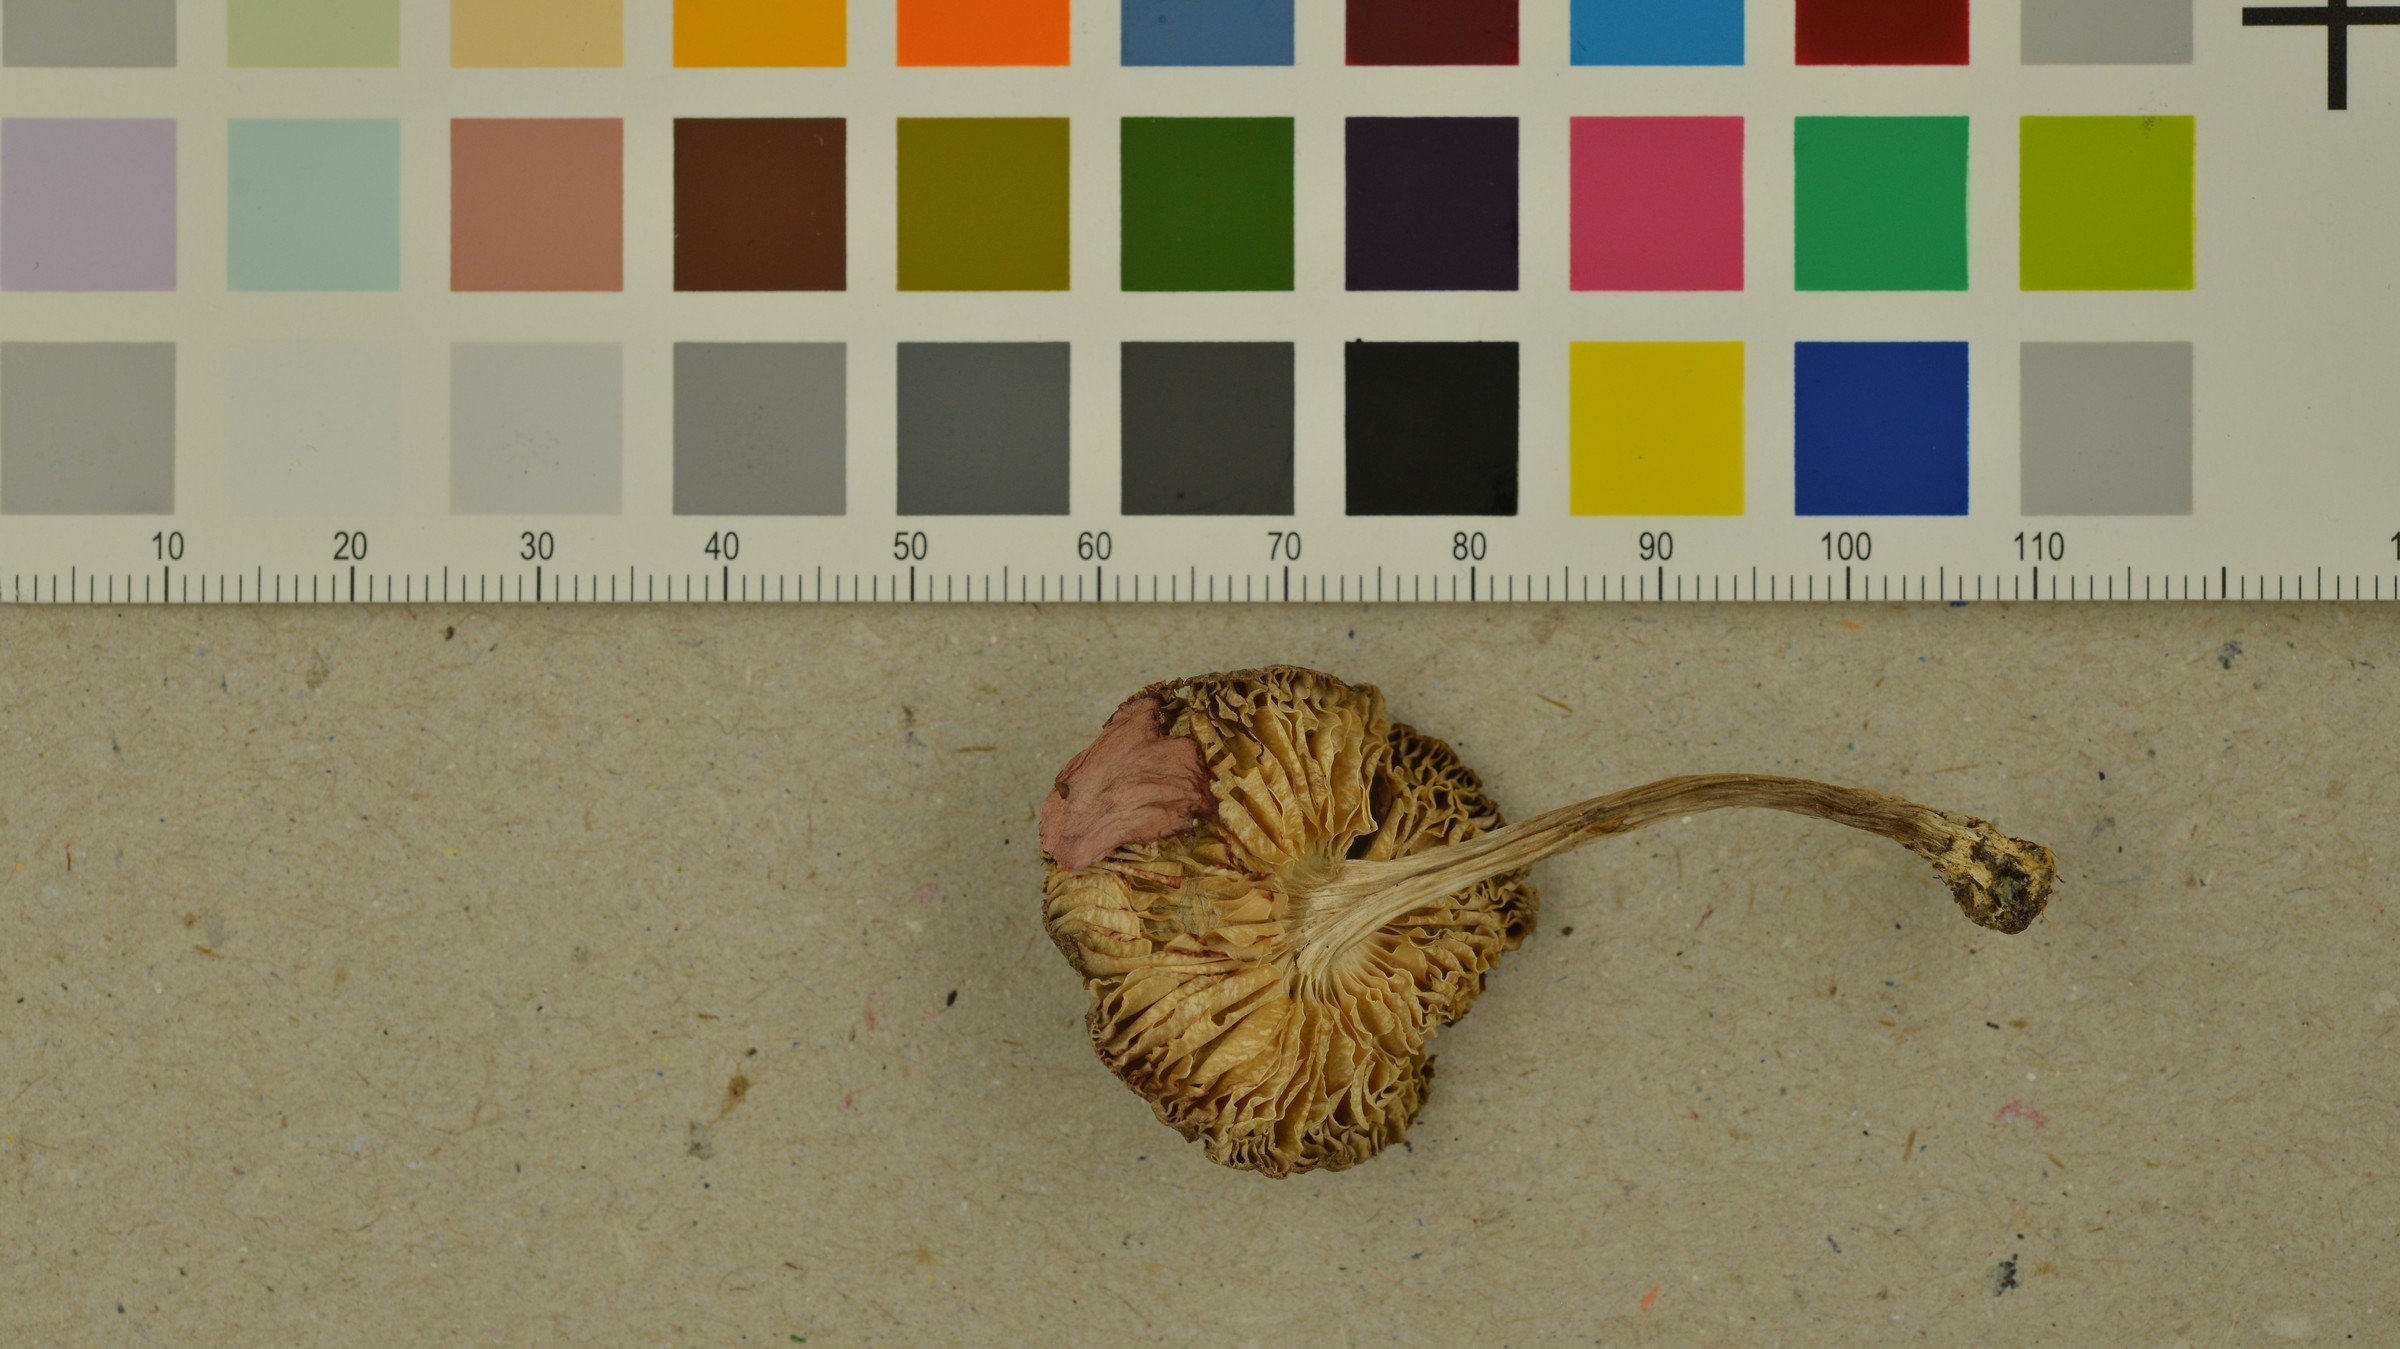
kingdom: Fungi
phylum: Basidiomycota
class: Agaricomycetes
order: Agaricales
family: Tricholomataceae
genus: Tricholoma
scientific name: Tricholoma terreum
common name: Grey knight
